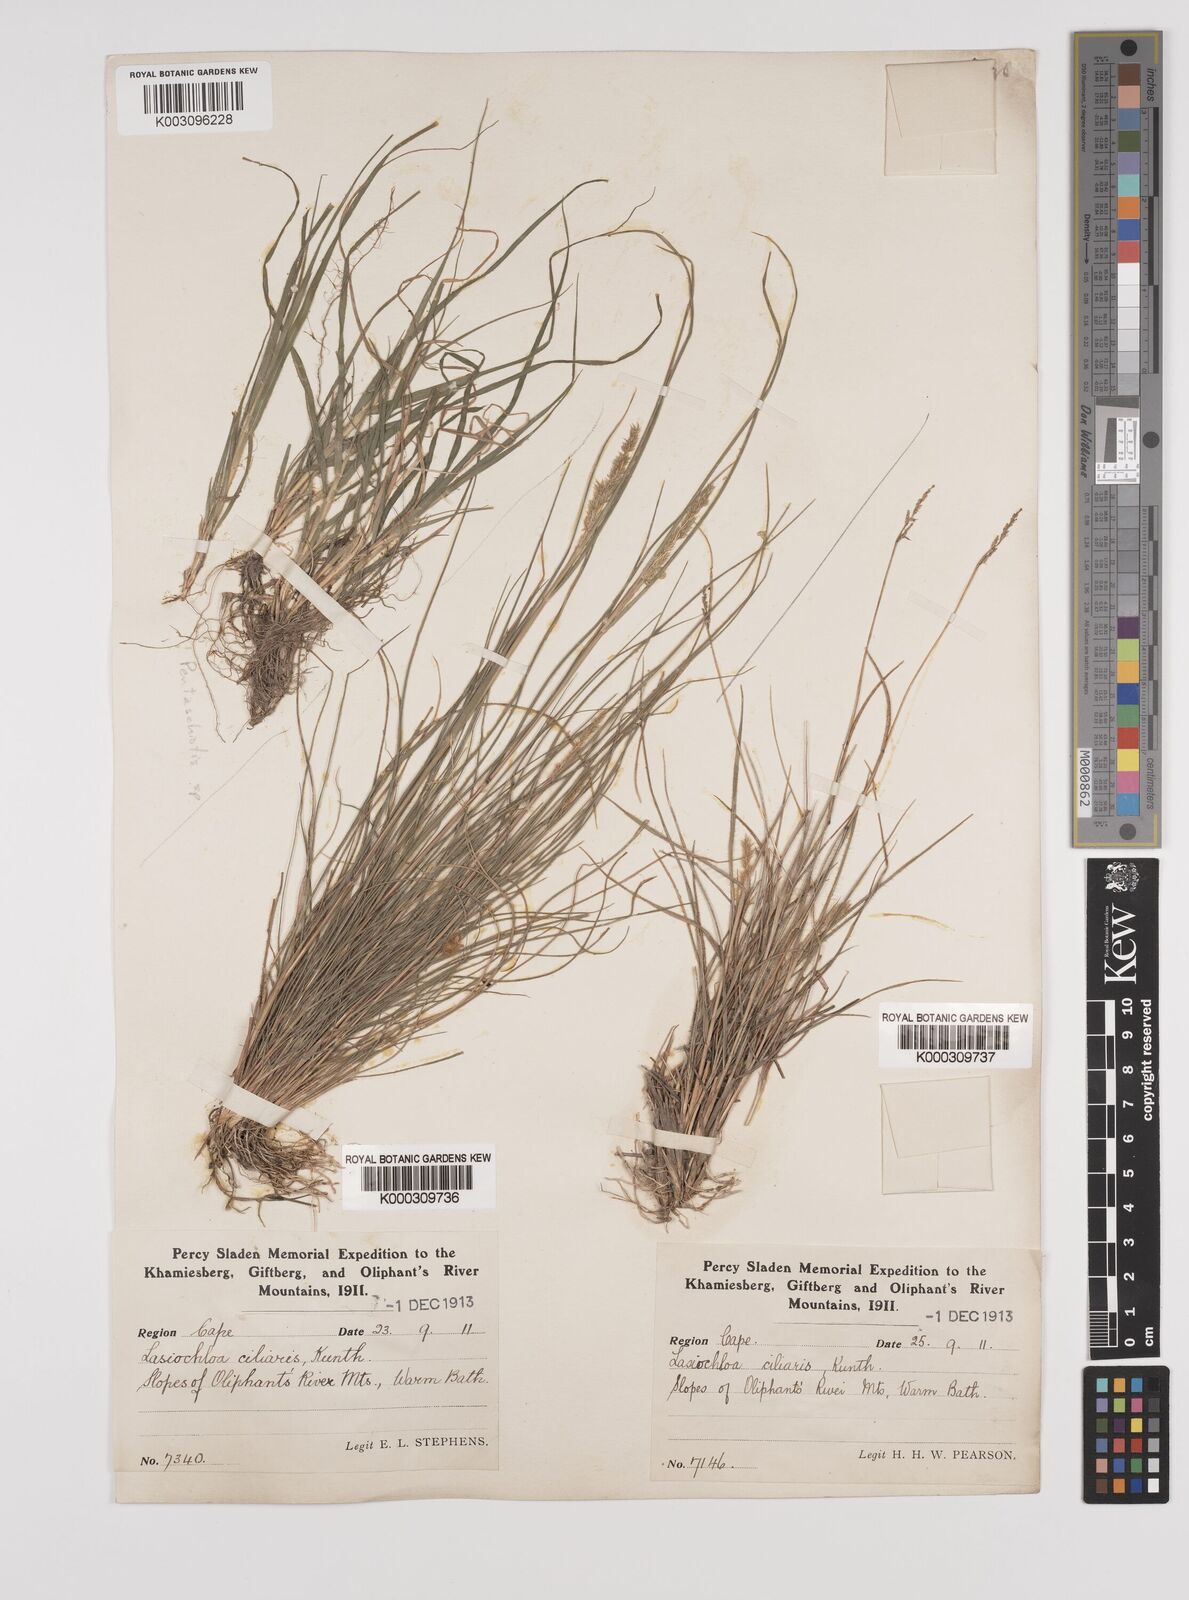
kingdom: Plantae
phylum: Tracheophyta
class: Liliopsida
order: Poales
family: Poaceae
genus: Tribolium
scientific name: Tribolium hispidum
